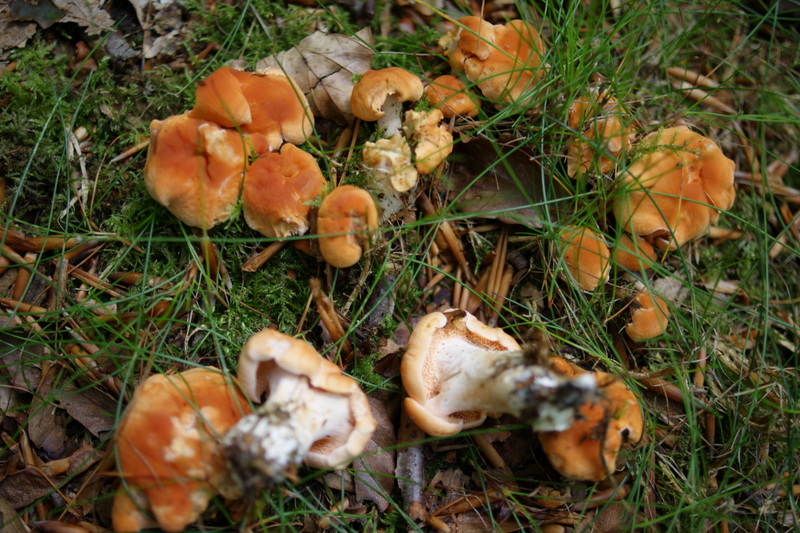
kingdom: Fungi
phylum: Basidiomycota
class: Agaricomycetes
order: Cantharellales
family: Hydnaceae
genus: Hydnum
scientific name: Hydnum ellipsosporum
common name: tandet pigsvamp
